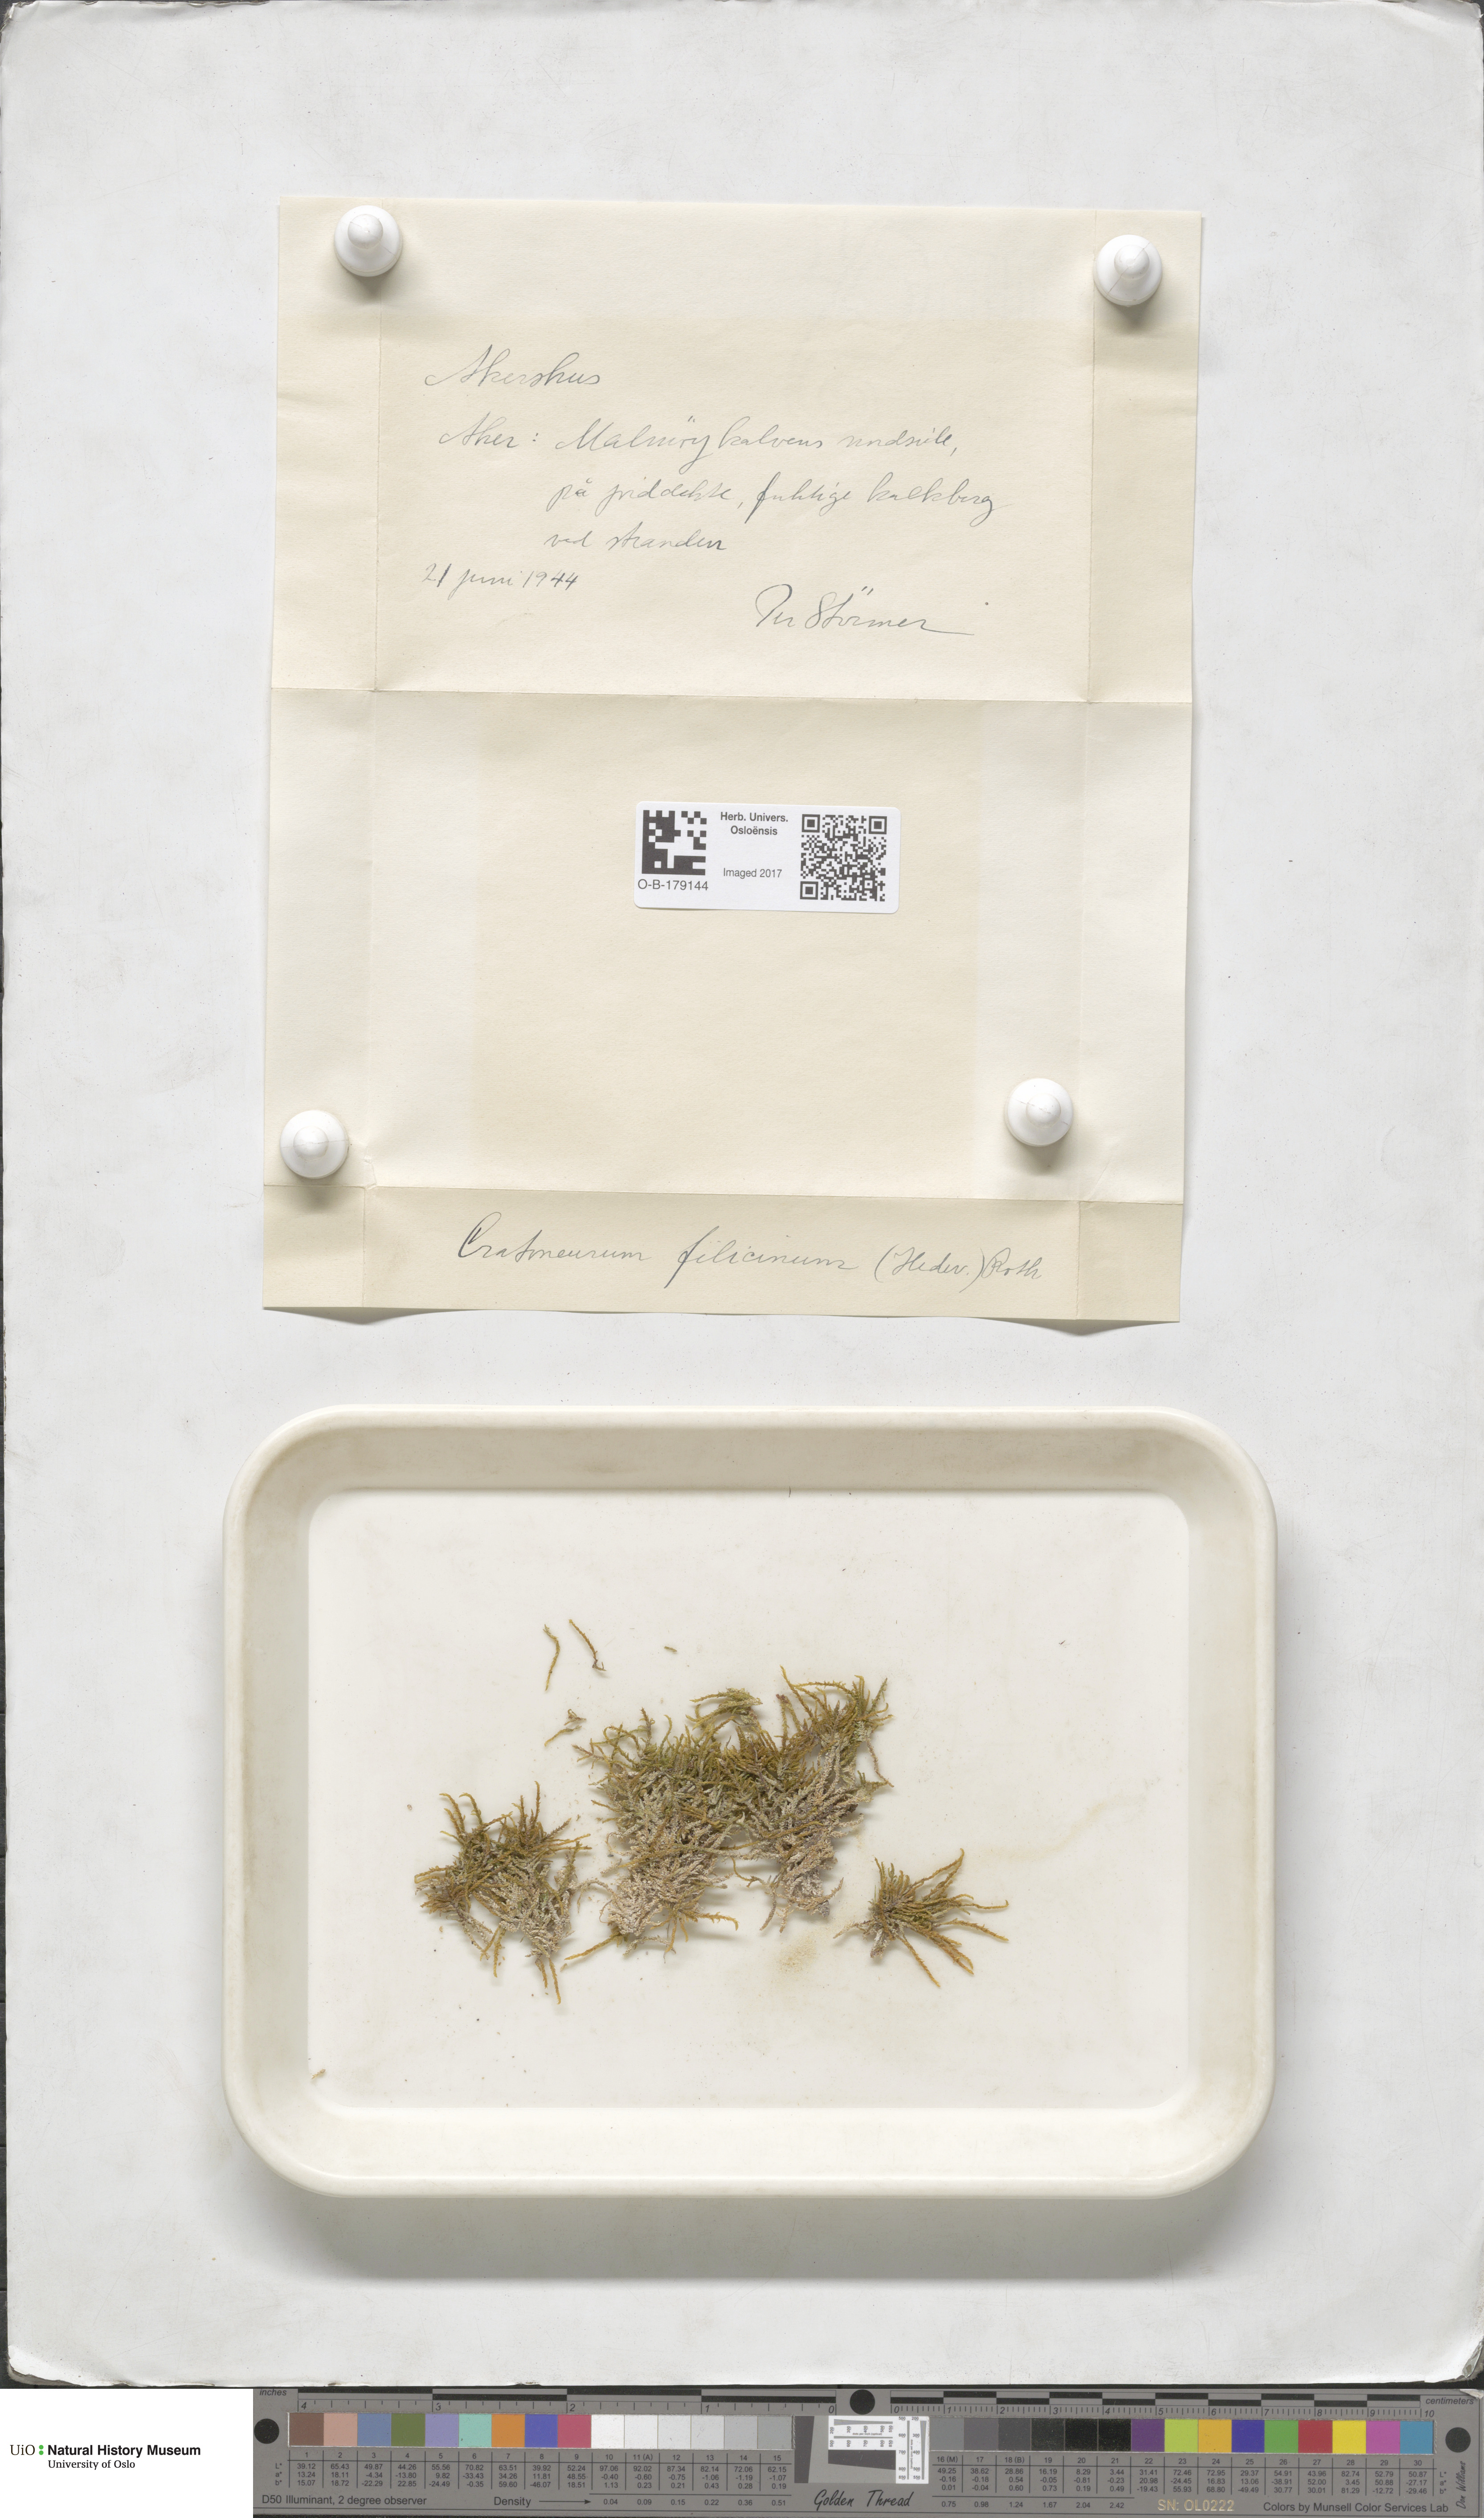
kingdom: Plantae
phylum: Bryophyta
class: Bryopsida
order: Hypnales
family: Amblystegiaceae
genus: Cratoneuron
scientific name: Cratoneuron filicinum
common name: Fern-leaved hook moss
